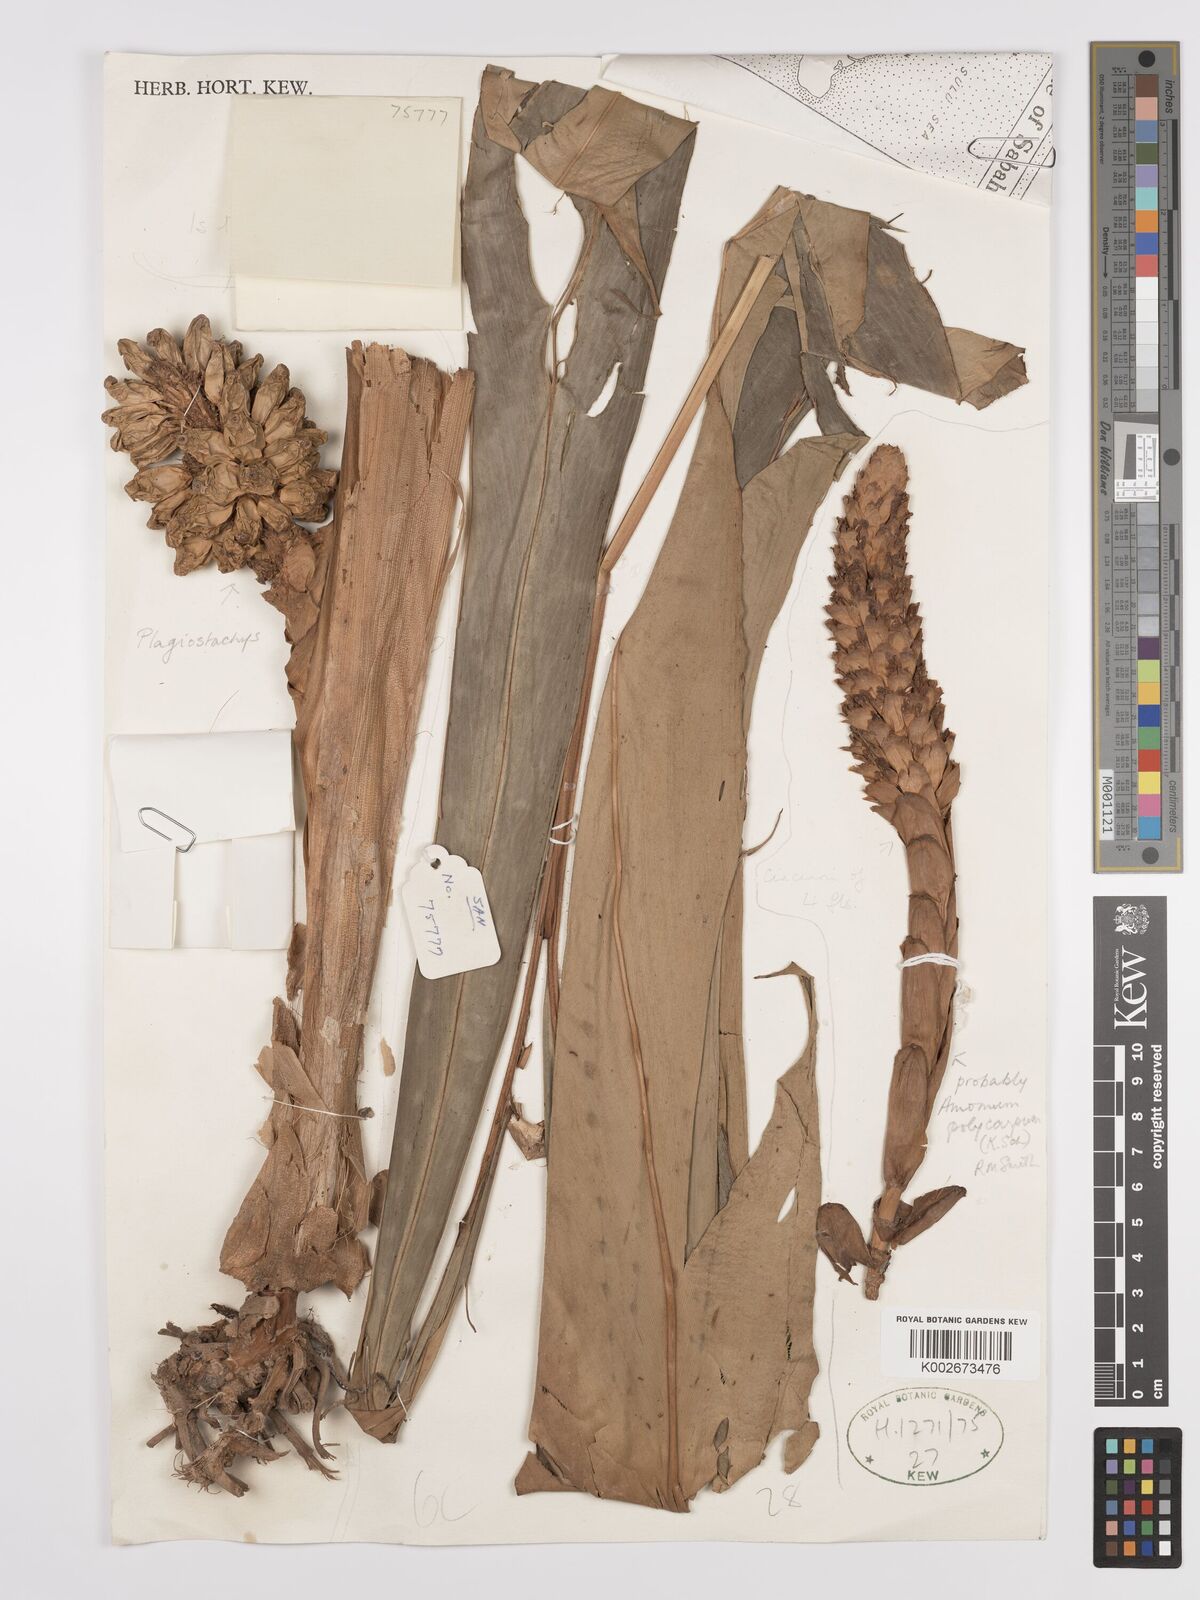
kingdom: Plantae
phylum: Tracheophyta
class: Liliopsida
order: Zingiberales
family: Zingiberaceae
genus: Etlingera
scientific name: Etlingera polycarpa
